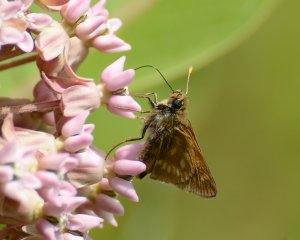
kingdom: Animalia
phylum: Arthropoda
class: Insecta
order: Lepidoptera
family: Hesperiidae
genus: Polites
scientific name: Polites
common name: Long Dash Skipper
